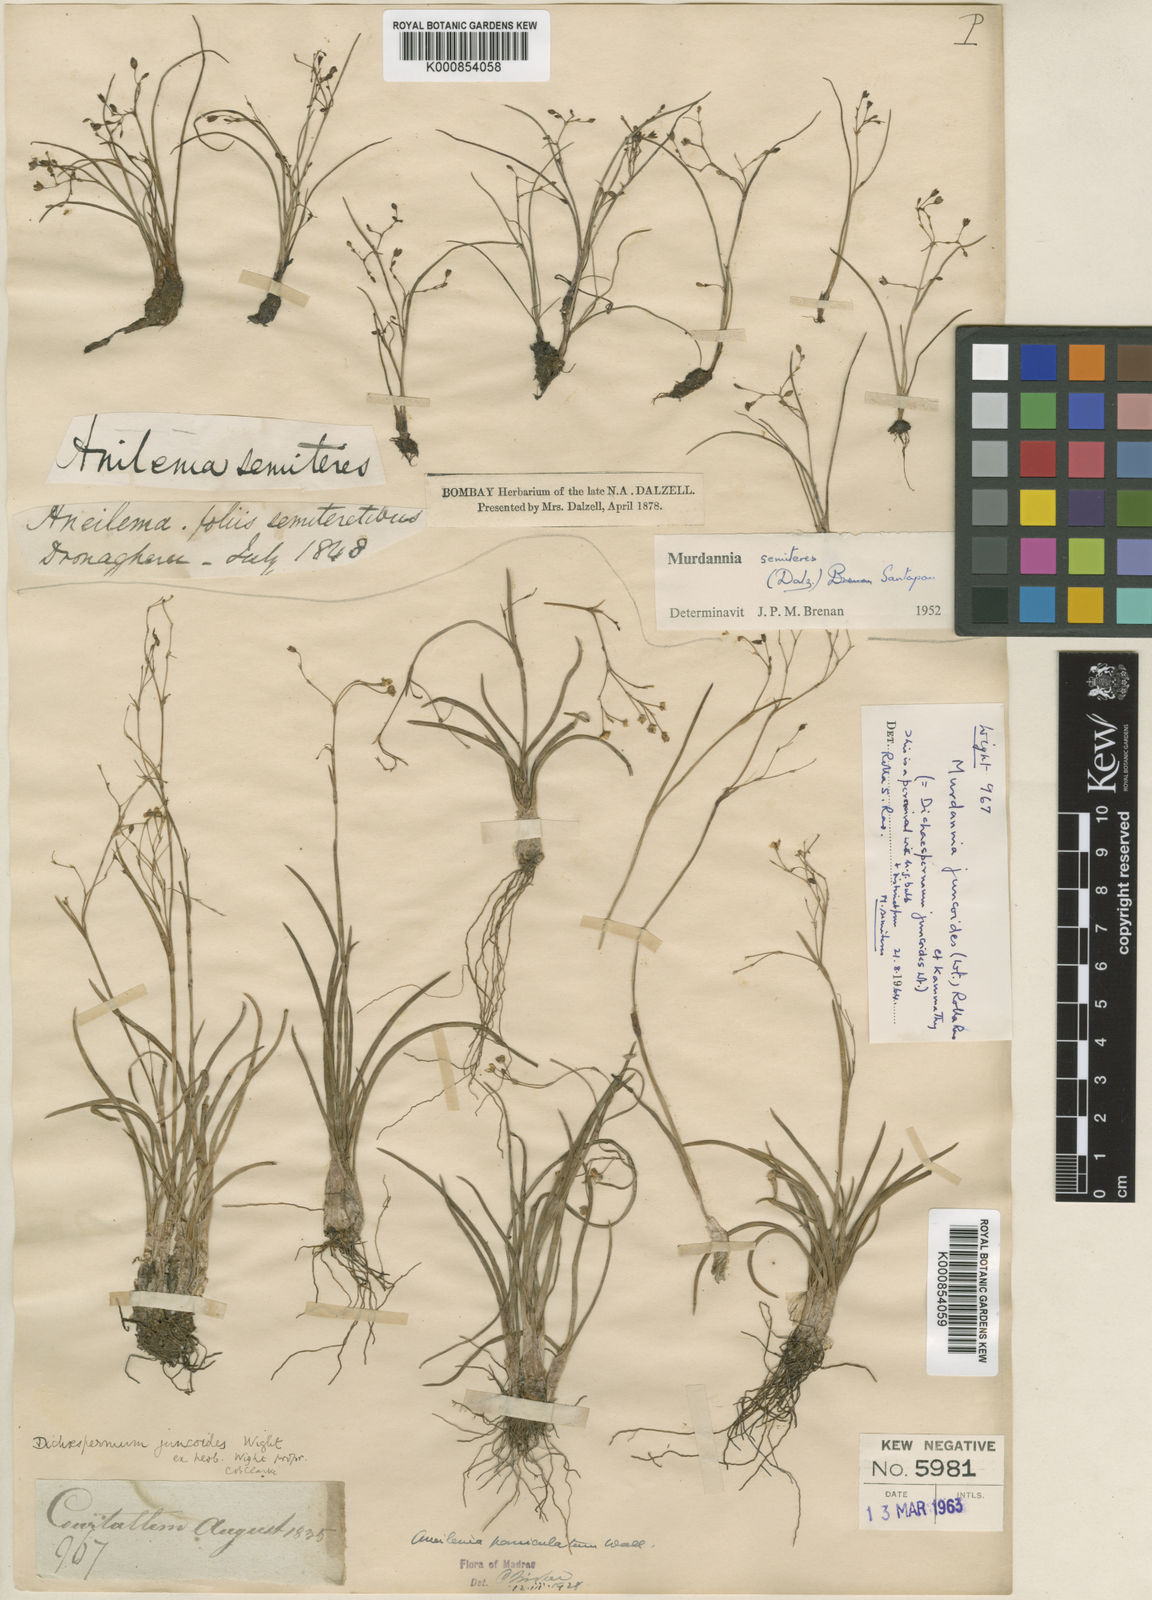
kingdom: Plantae
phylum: Tracheophyta
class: Liliopsida
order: Commelinales
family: Commelinaceae
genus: Murdannia
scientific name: Murdannia semiteres
